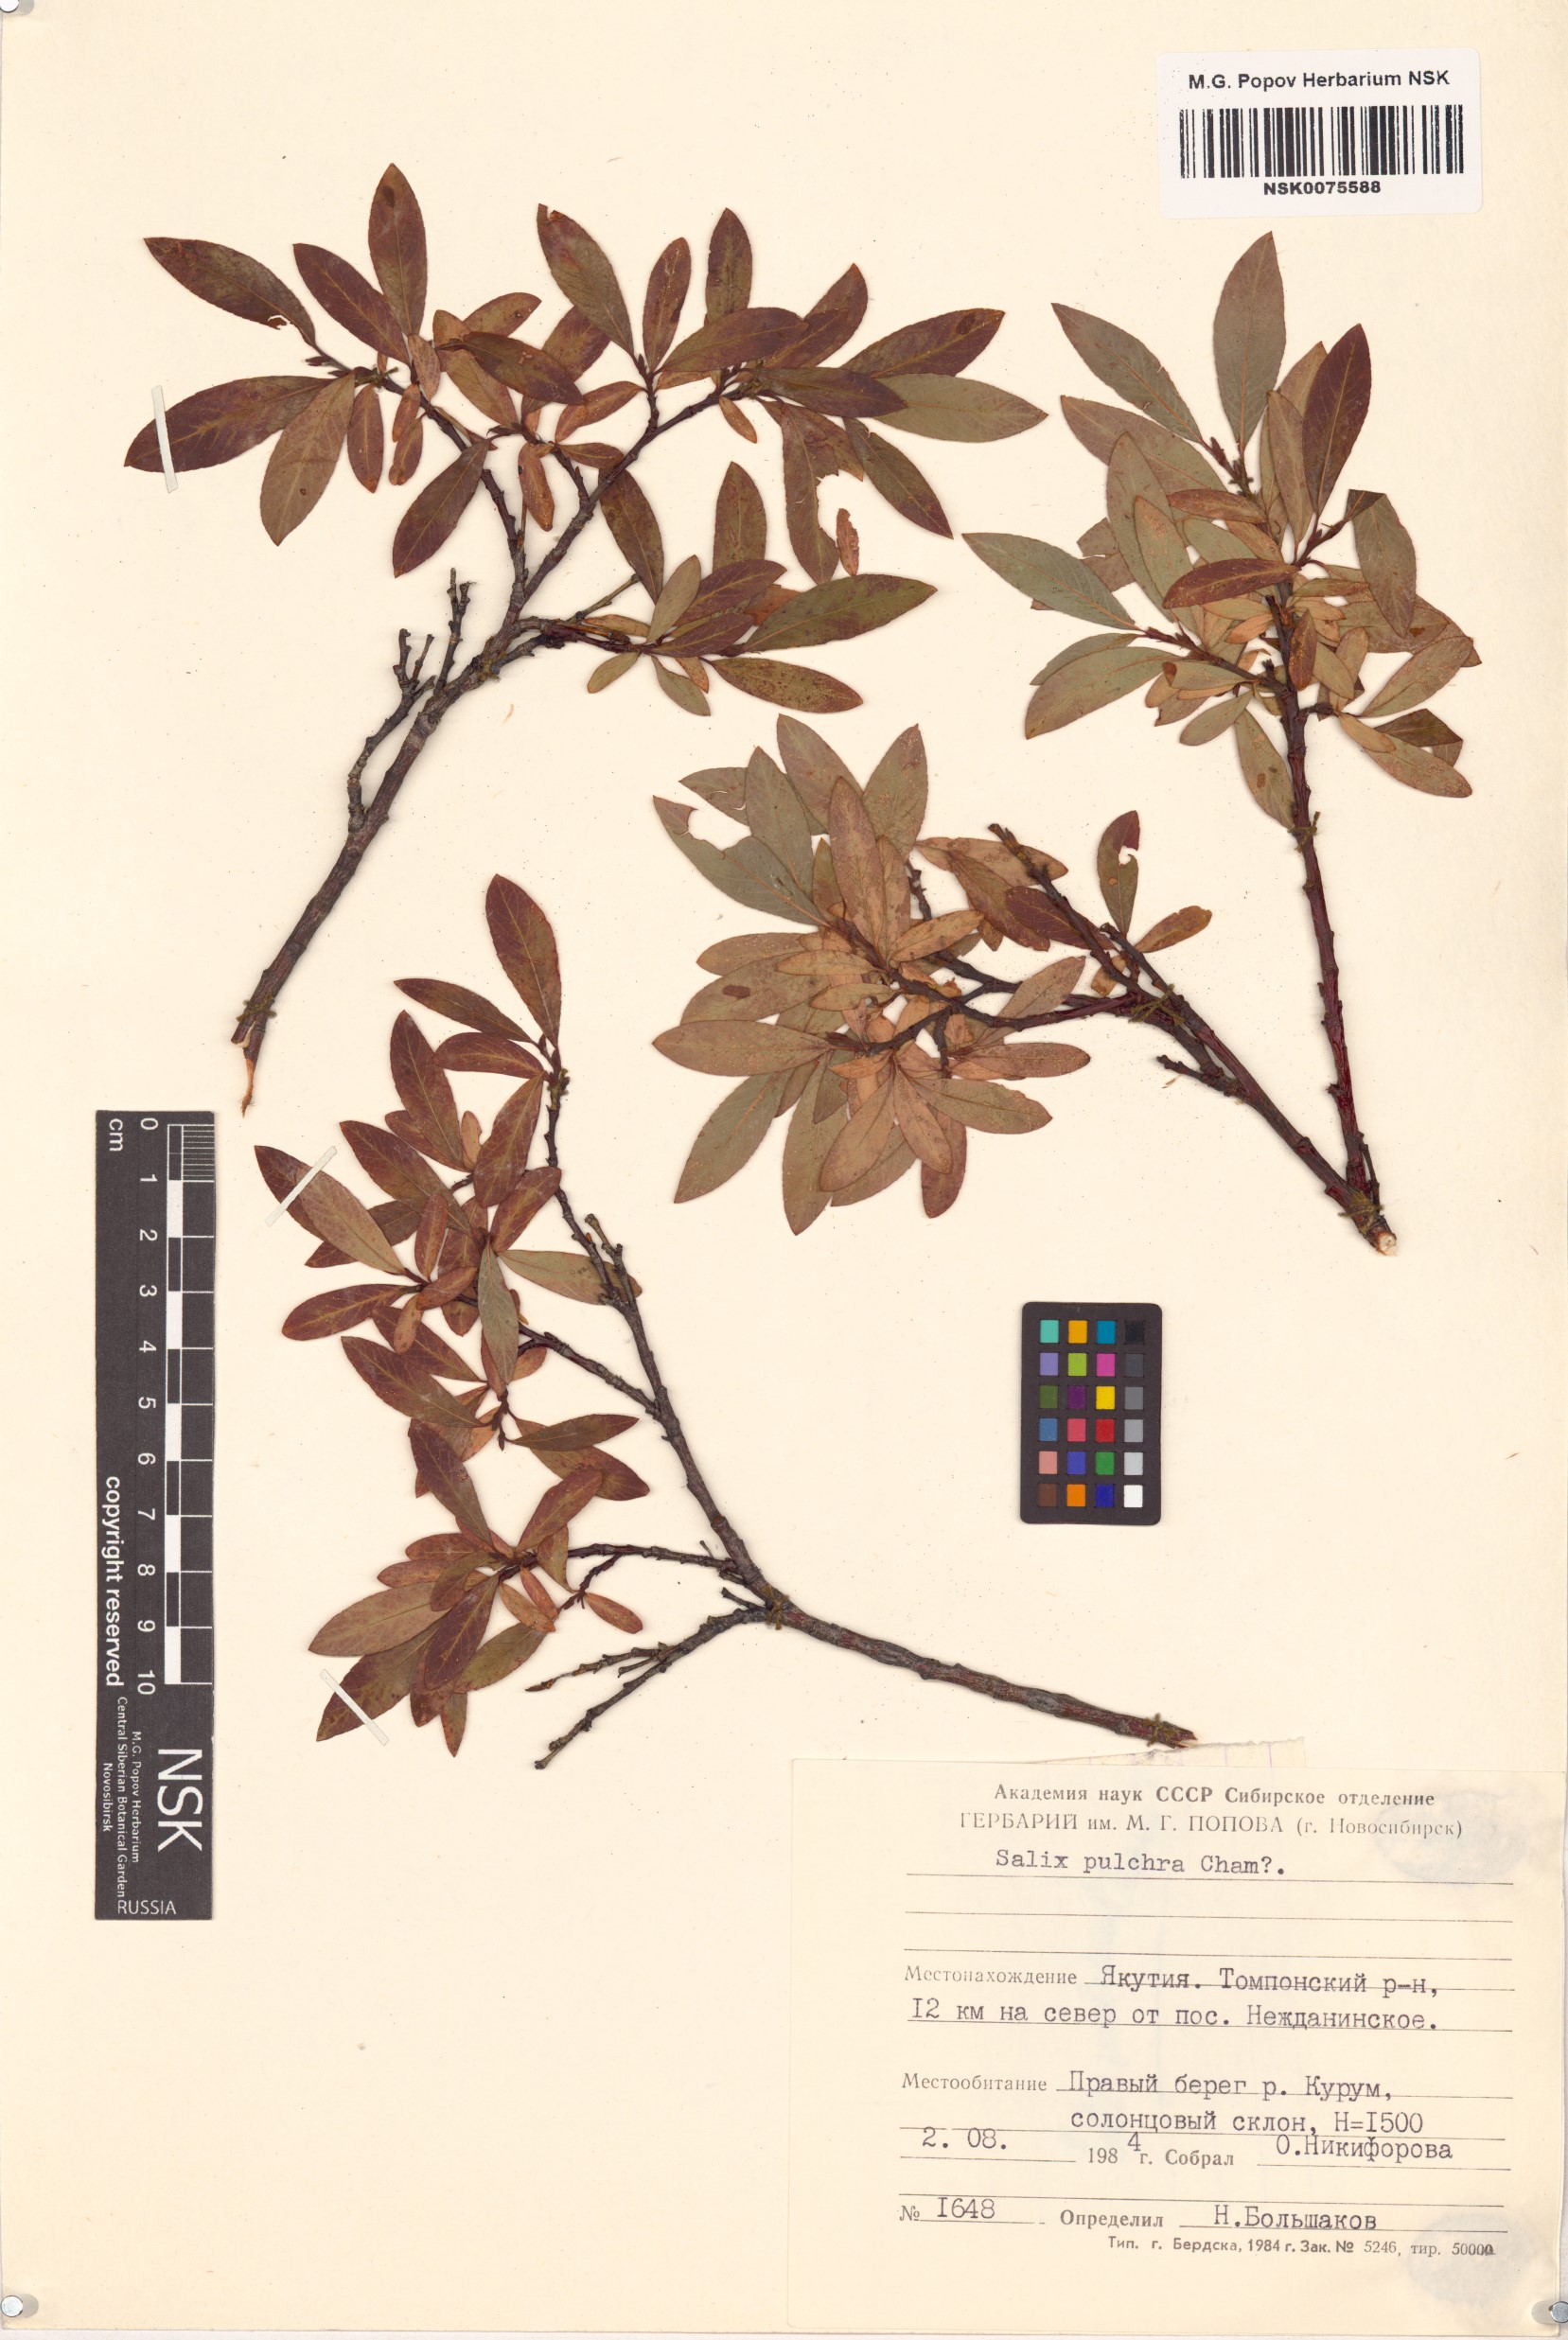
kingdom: Plantae
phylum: Tracheophyta
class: Magnoliopsida
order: Malpighiales
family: Salicaceae
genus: Salix
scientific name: Salix pulchra
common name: Diamond-leaved willow
